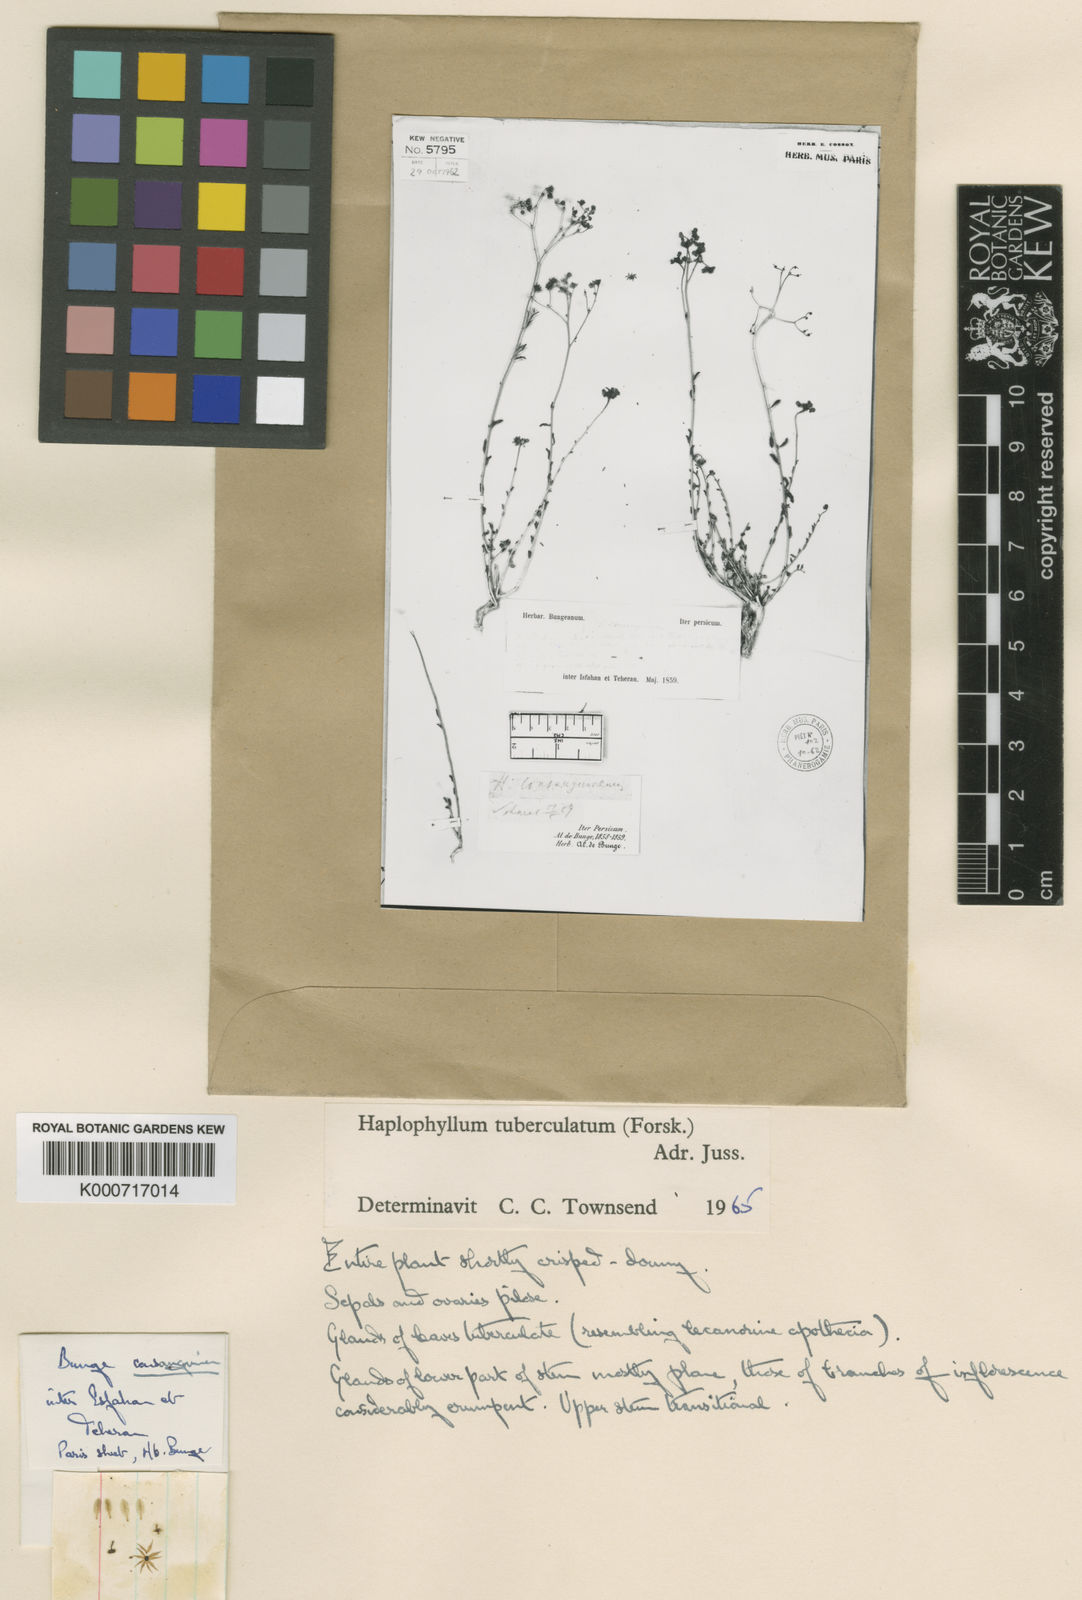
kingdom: Plantae
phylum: Tracheophyta
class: Magnoliopsida
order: Sapindales
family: Rutaceae
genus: Haplophyllum
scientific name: Haplophyllum tuberculatum
